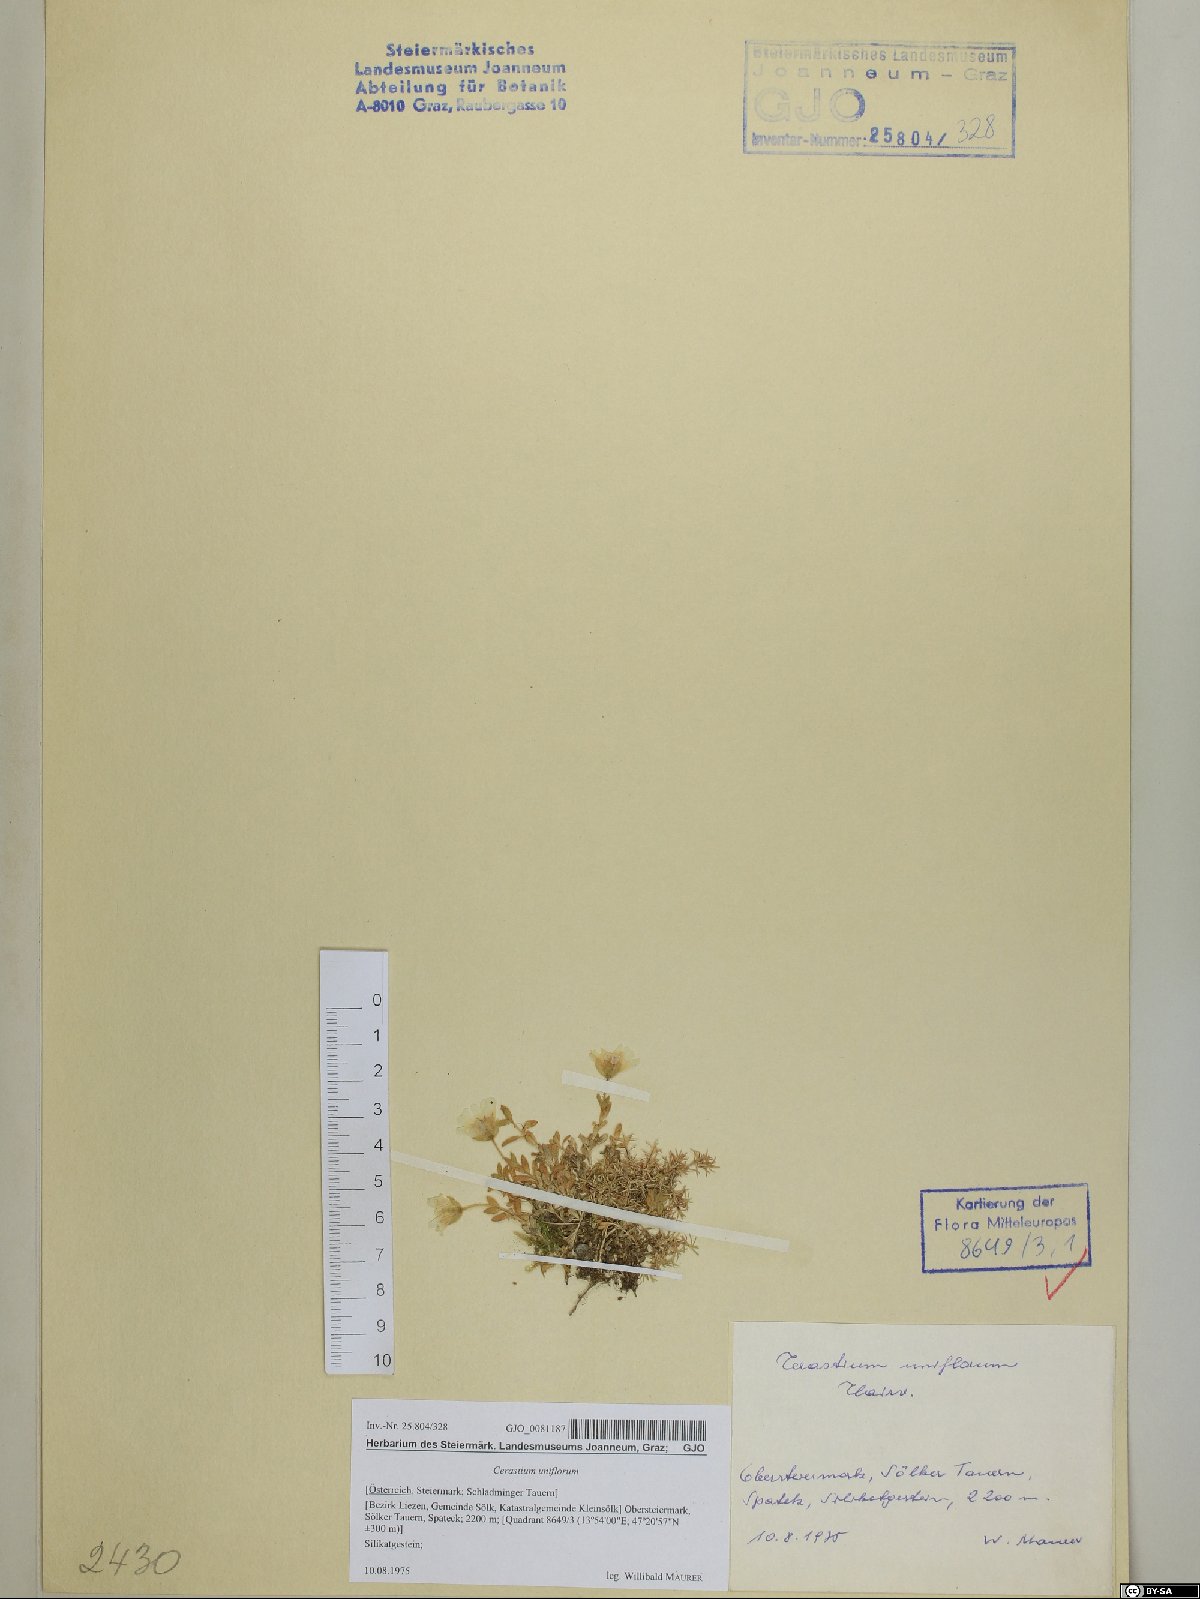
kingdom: Plantae
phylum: Tracheophyta
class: Magnoliopsida
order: Caryophyllales
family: Caryophyllaceae
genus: Cerastium
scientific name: Cerastium uniflorum
